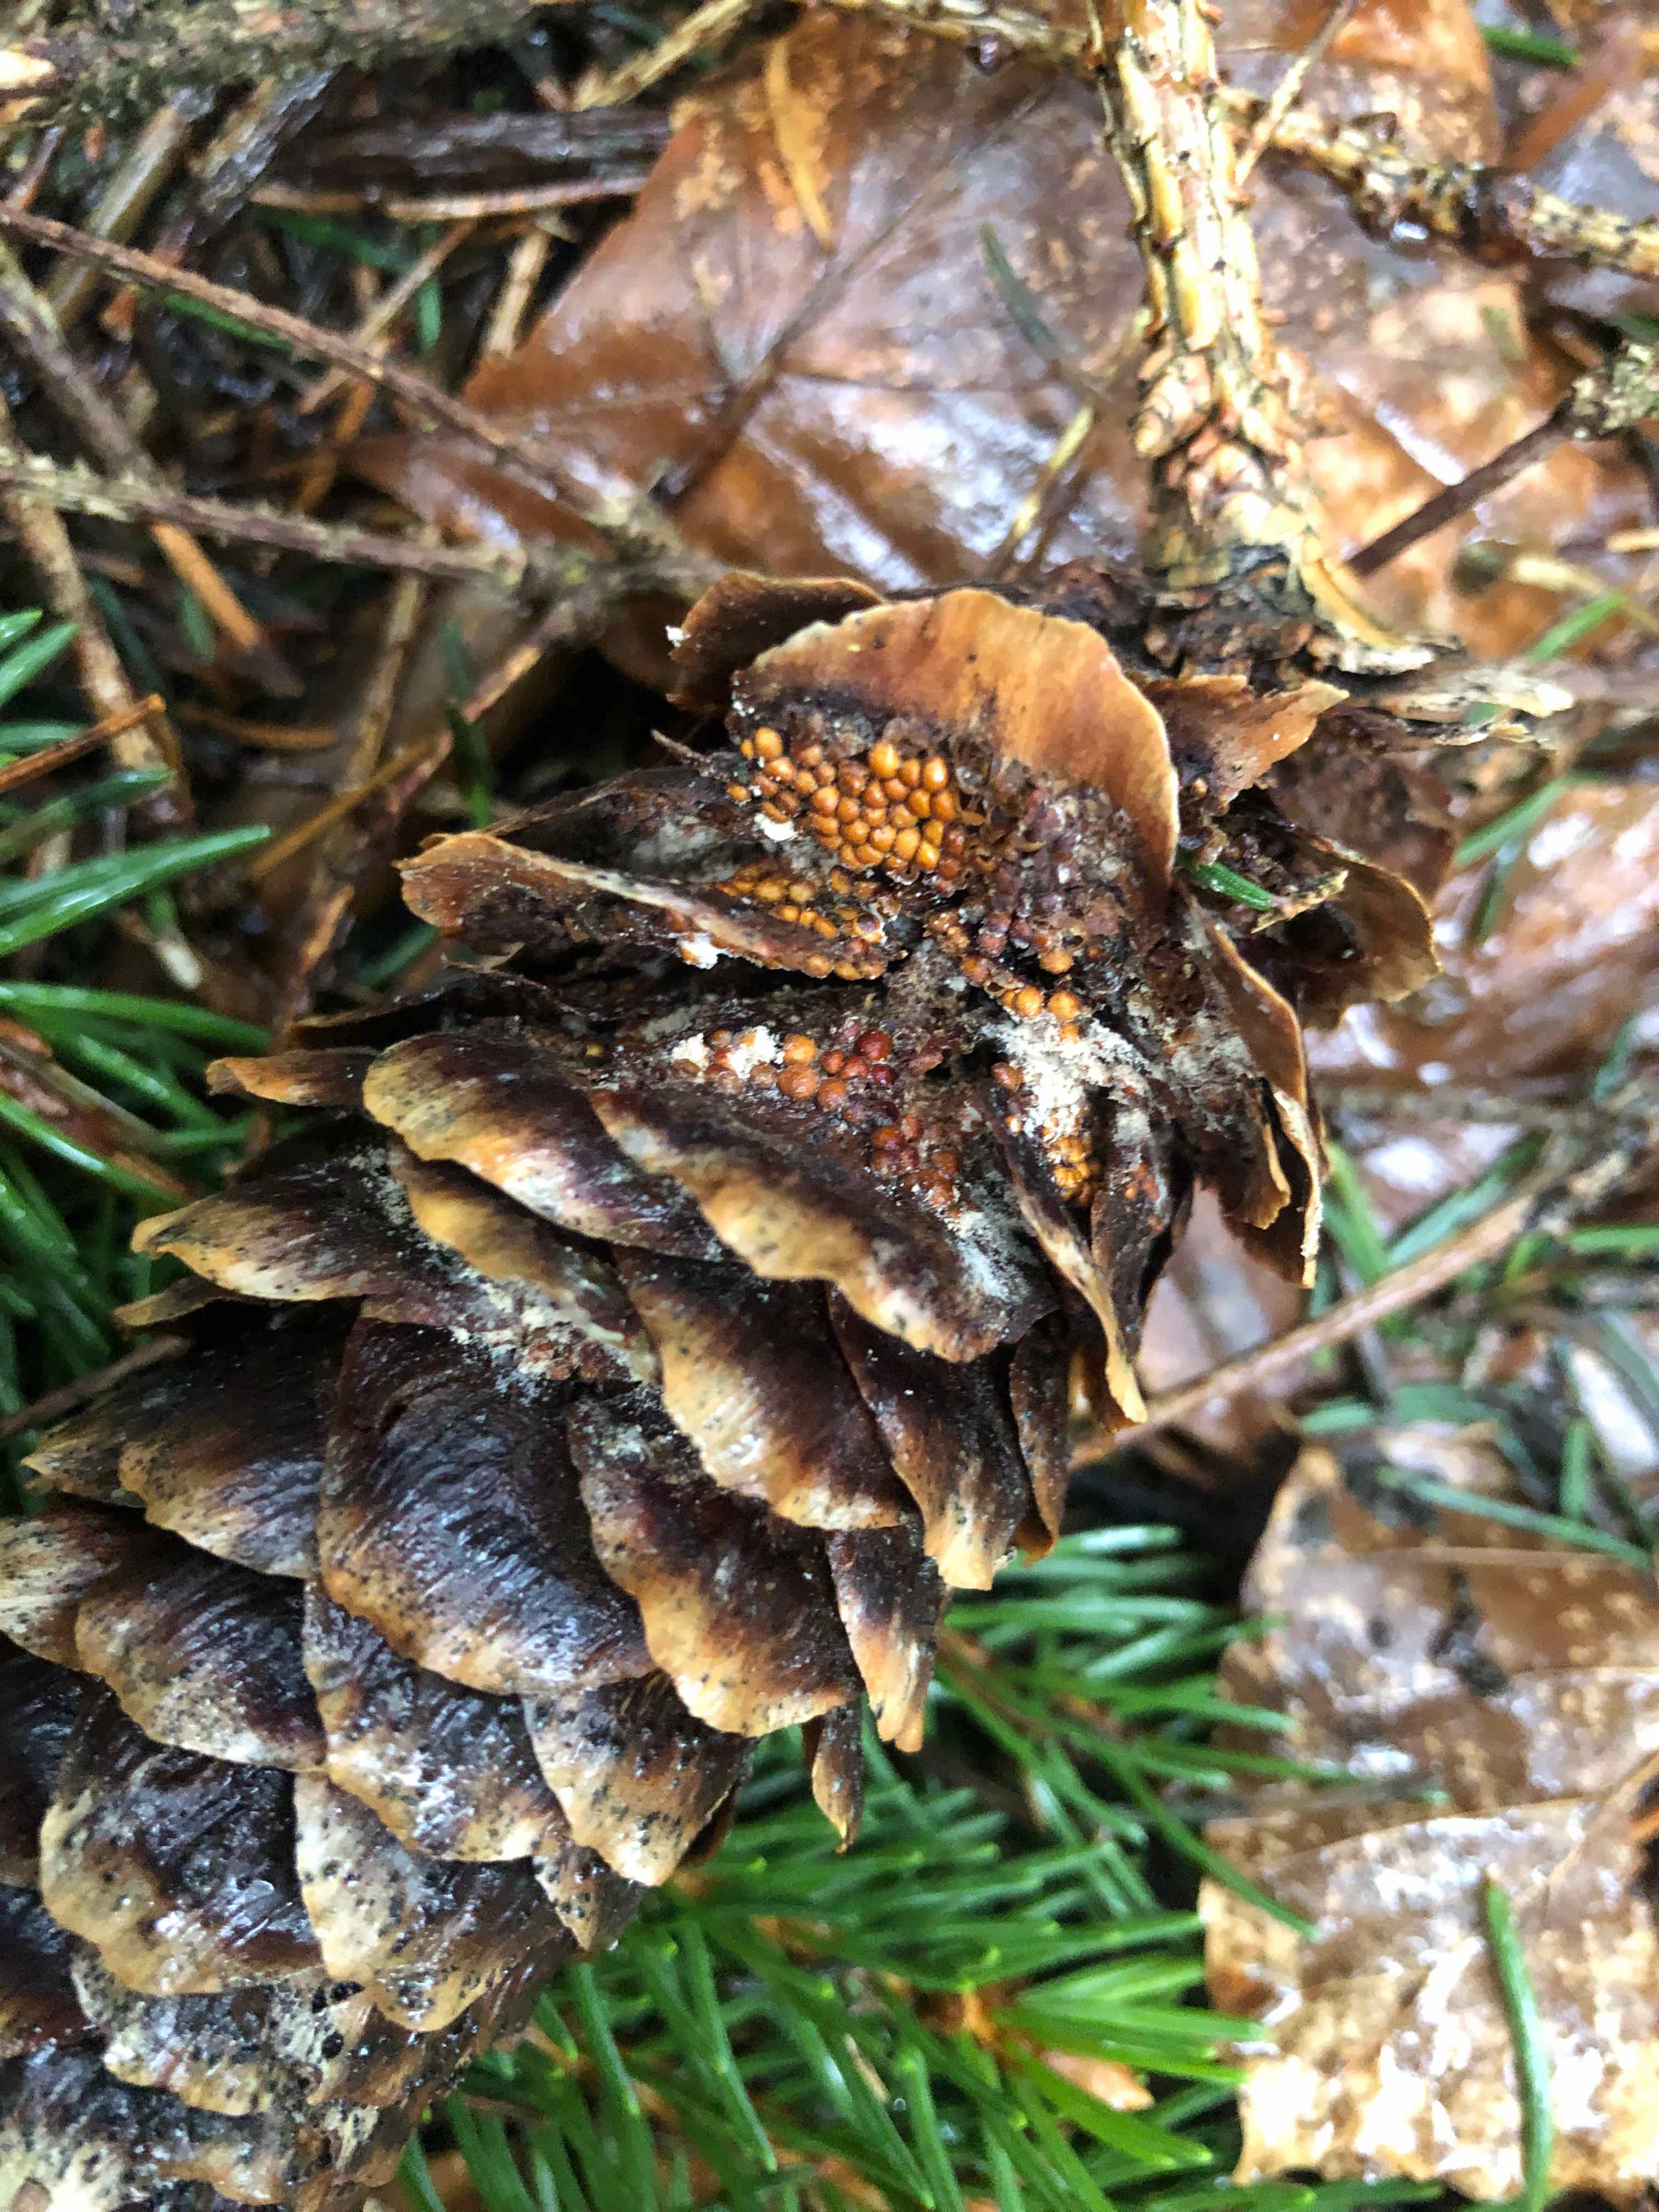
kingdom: Fungi
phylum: Basidiomycota
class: Pucciniomycetes
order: Pucciniales
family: Pucciniastraceae
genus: Thekopsora
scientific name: Thekopsora areolata
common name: grankogle-nålerust
